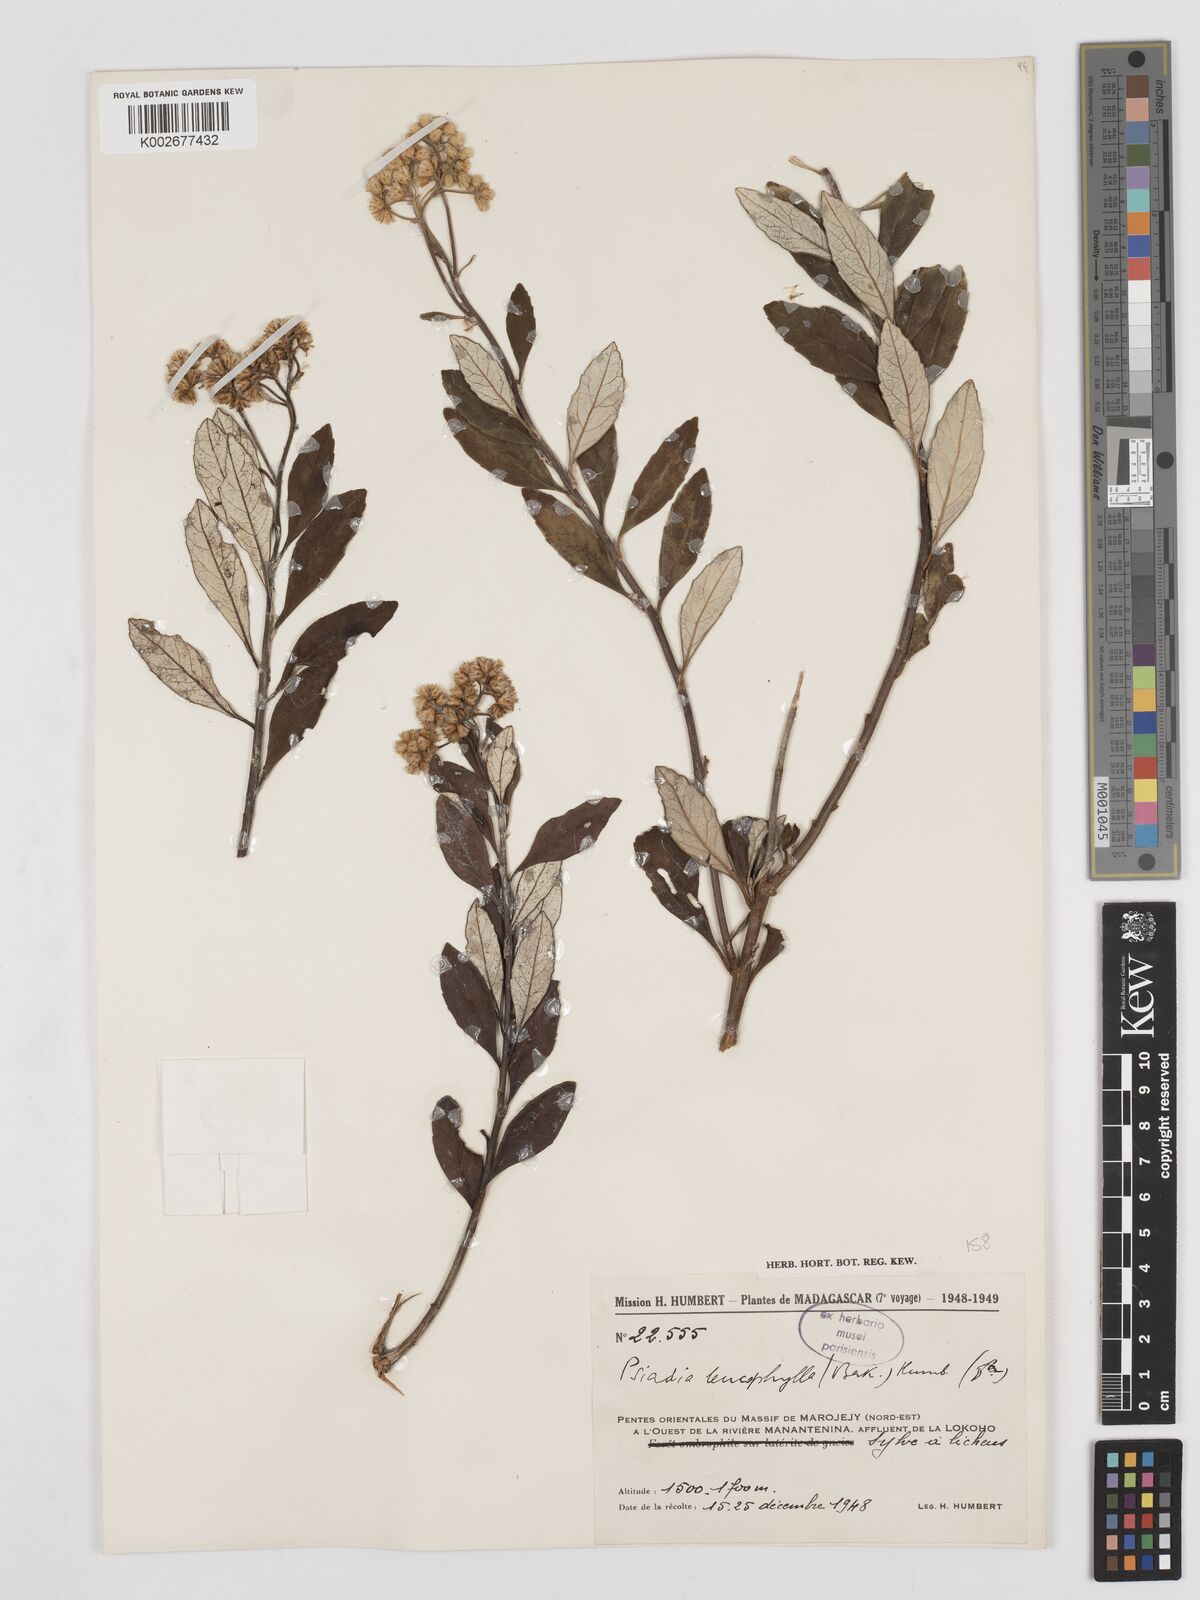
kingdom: Plantae
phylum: Tracheophyta
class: Magnoliopsida
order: Asterales
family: Asteraceae
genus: Psiadia
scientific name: Psiadia leucophylla
